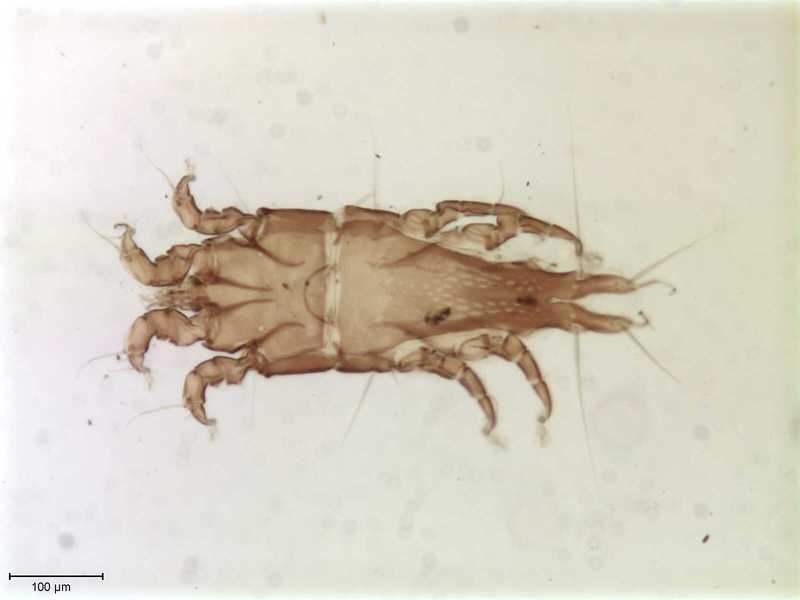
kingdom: Animalia
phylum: Arthropoda
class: Arachnida
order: Sarcoptiformes
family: Trouessartiidae
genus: Bicentralges
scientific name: Bicentralges
